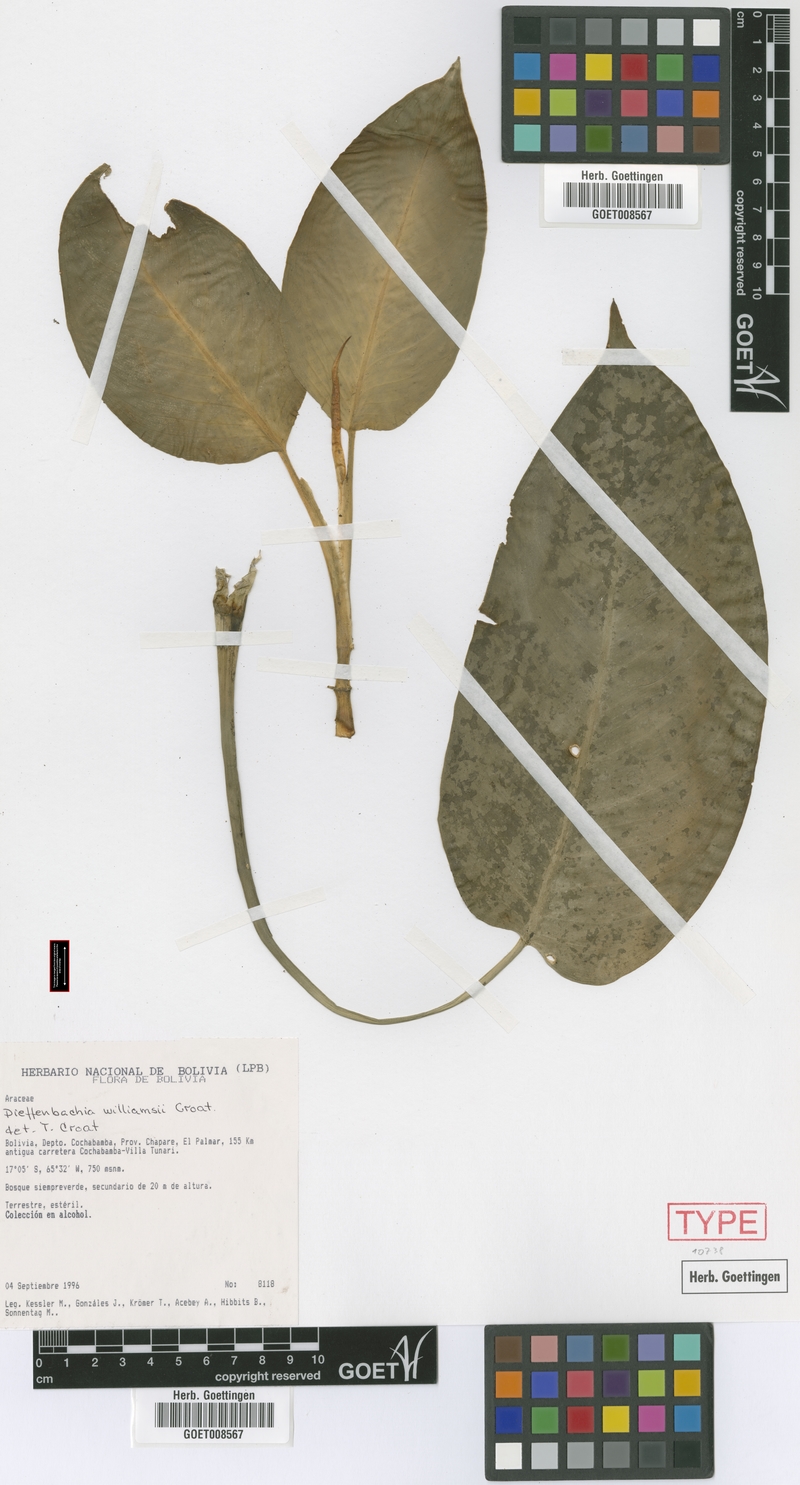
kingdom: Plantae
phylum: Tracheophyta
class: Liliopsida
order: Alismatales
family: Araceae
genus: Dieffenbachia
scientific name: Dieffenbachia williamsii
